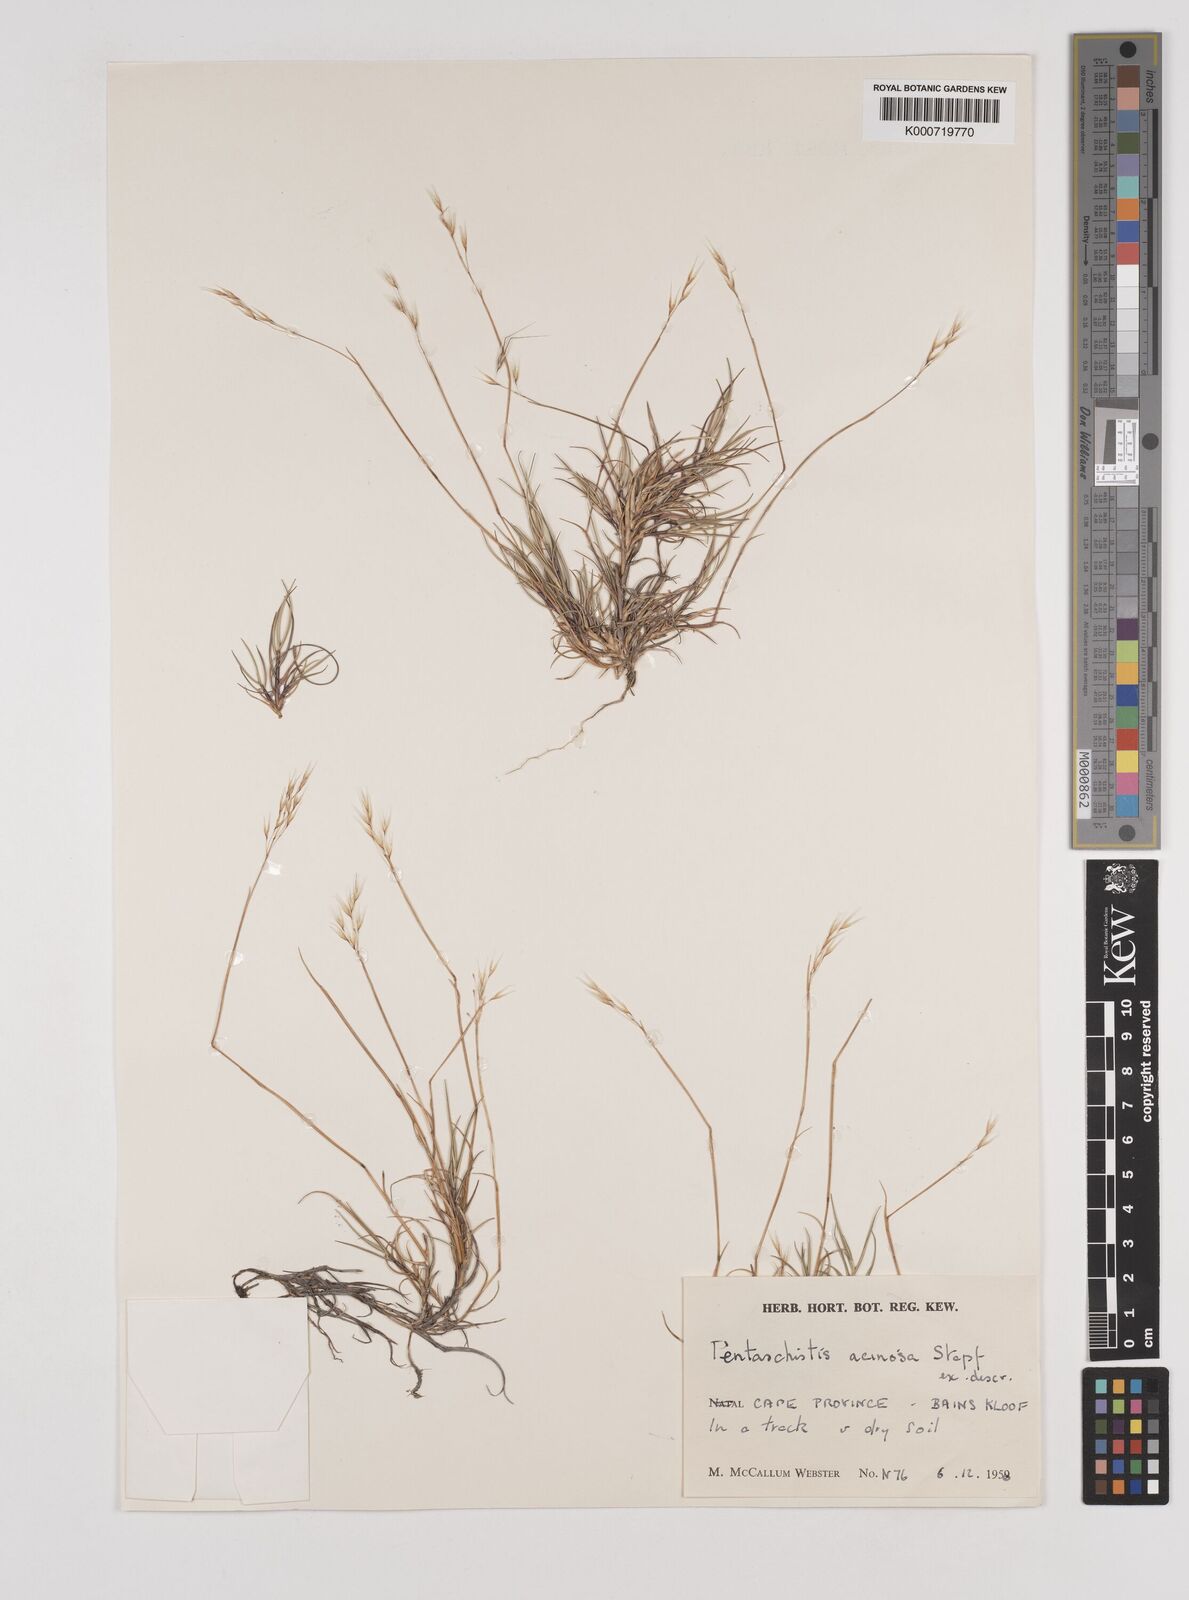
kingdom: Plantae
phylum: Tracheophyta
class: Liliopsida
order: Poales
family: Poaceae
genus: Pentameris
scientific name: Pentameris acinosa
